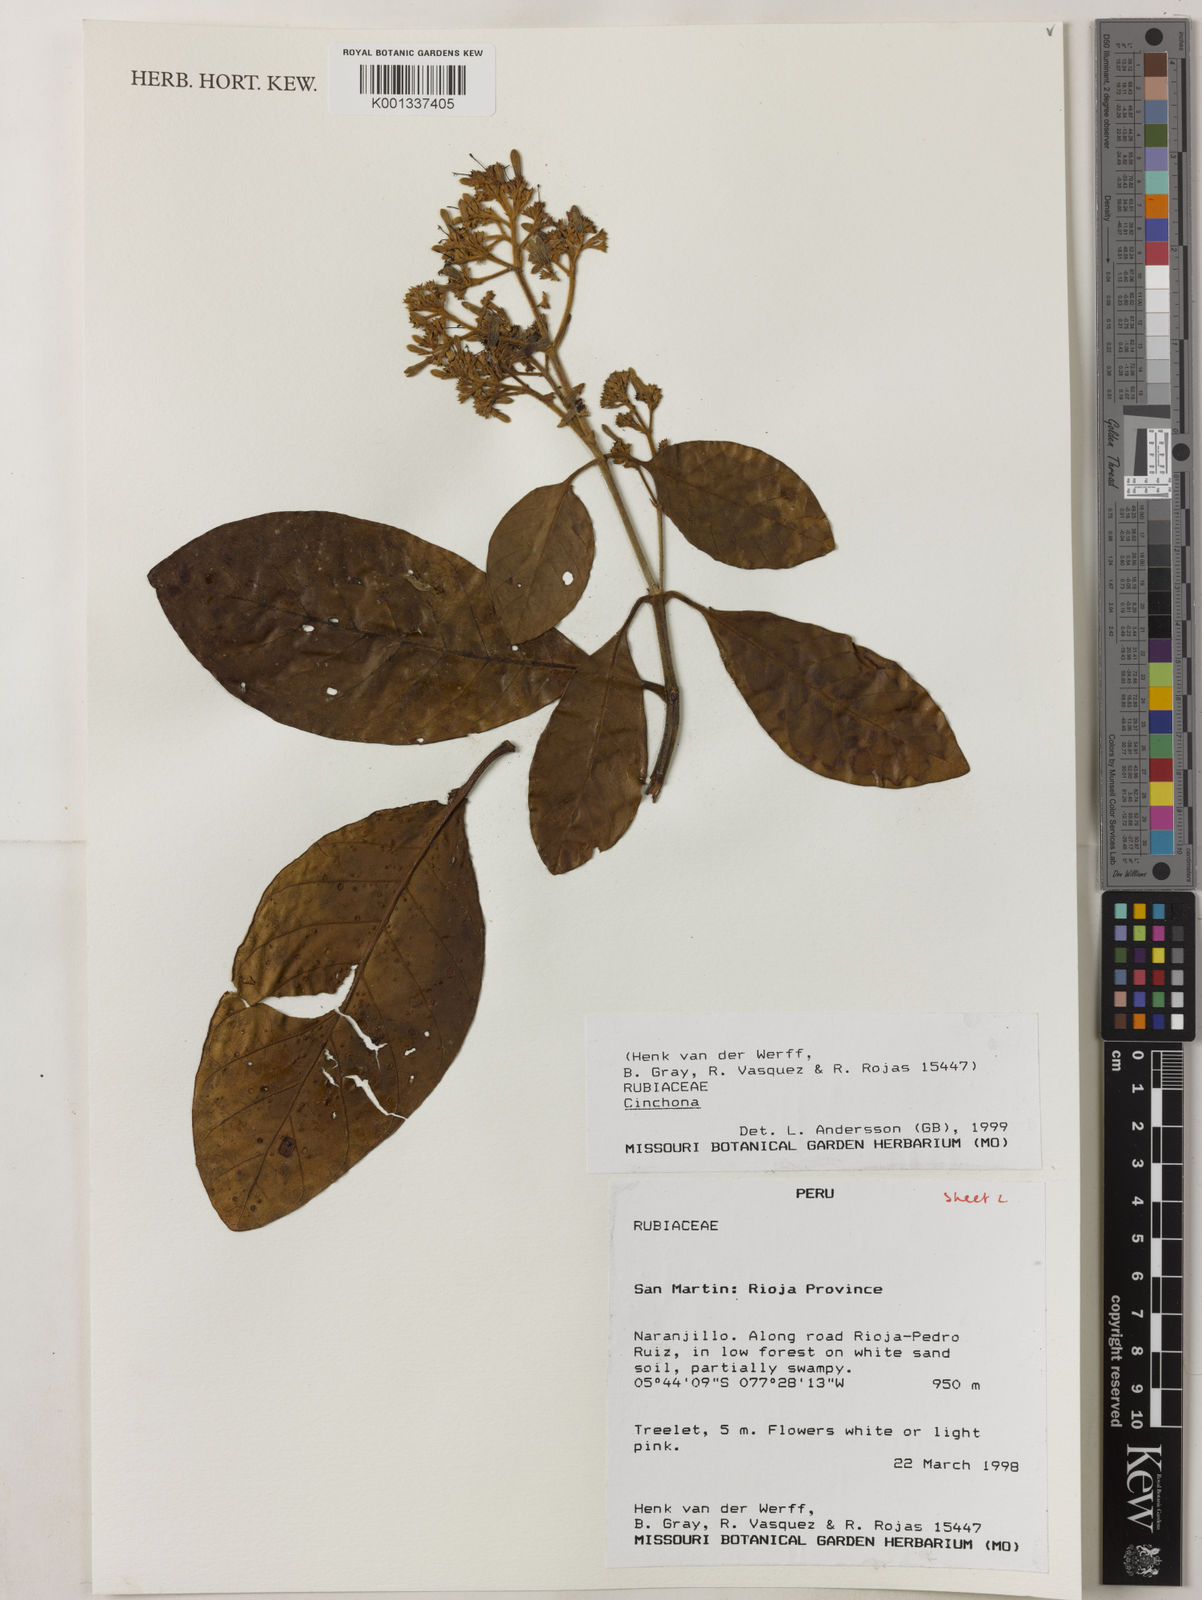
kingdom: Plantae
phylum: Tracheophyta
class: Magnoliopsida
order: Gentianales
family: Rubiaceae
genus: Cinchona
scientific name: Cinchona
